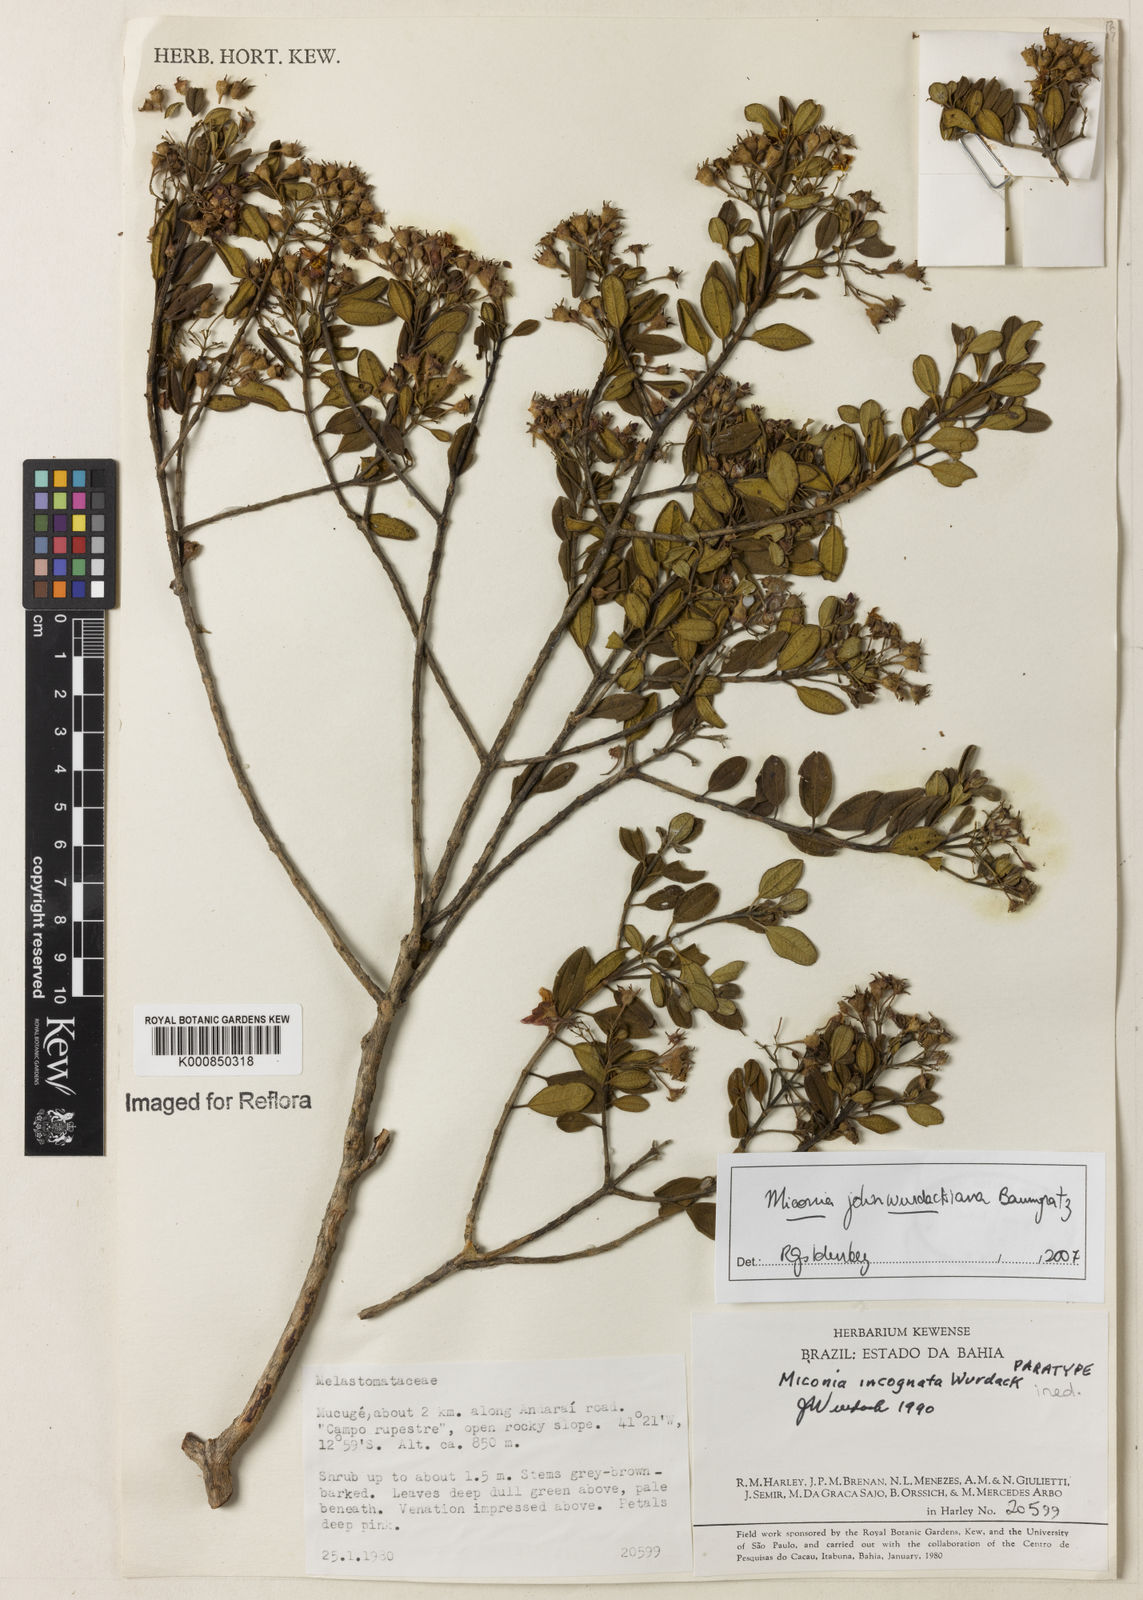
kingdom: Plantae
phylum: Tracheophyta
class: Magnoliopsida
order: Myrtales
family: Melastomataceae
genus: Miconia
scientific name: Miconia
